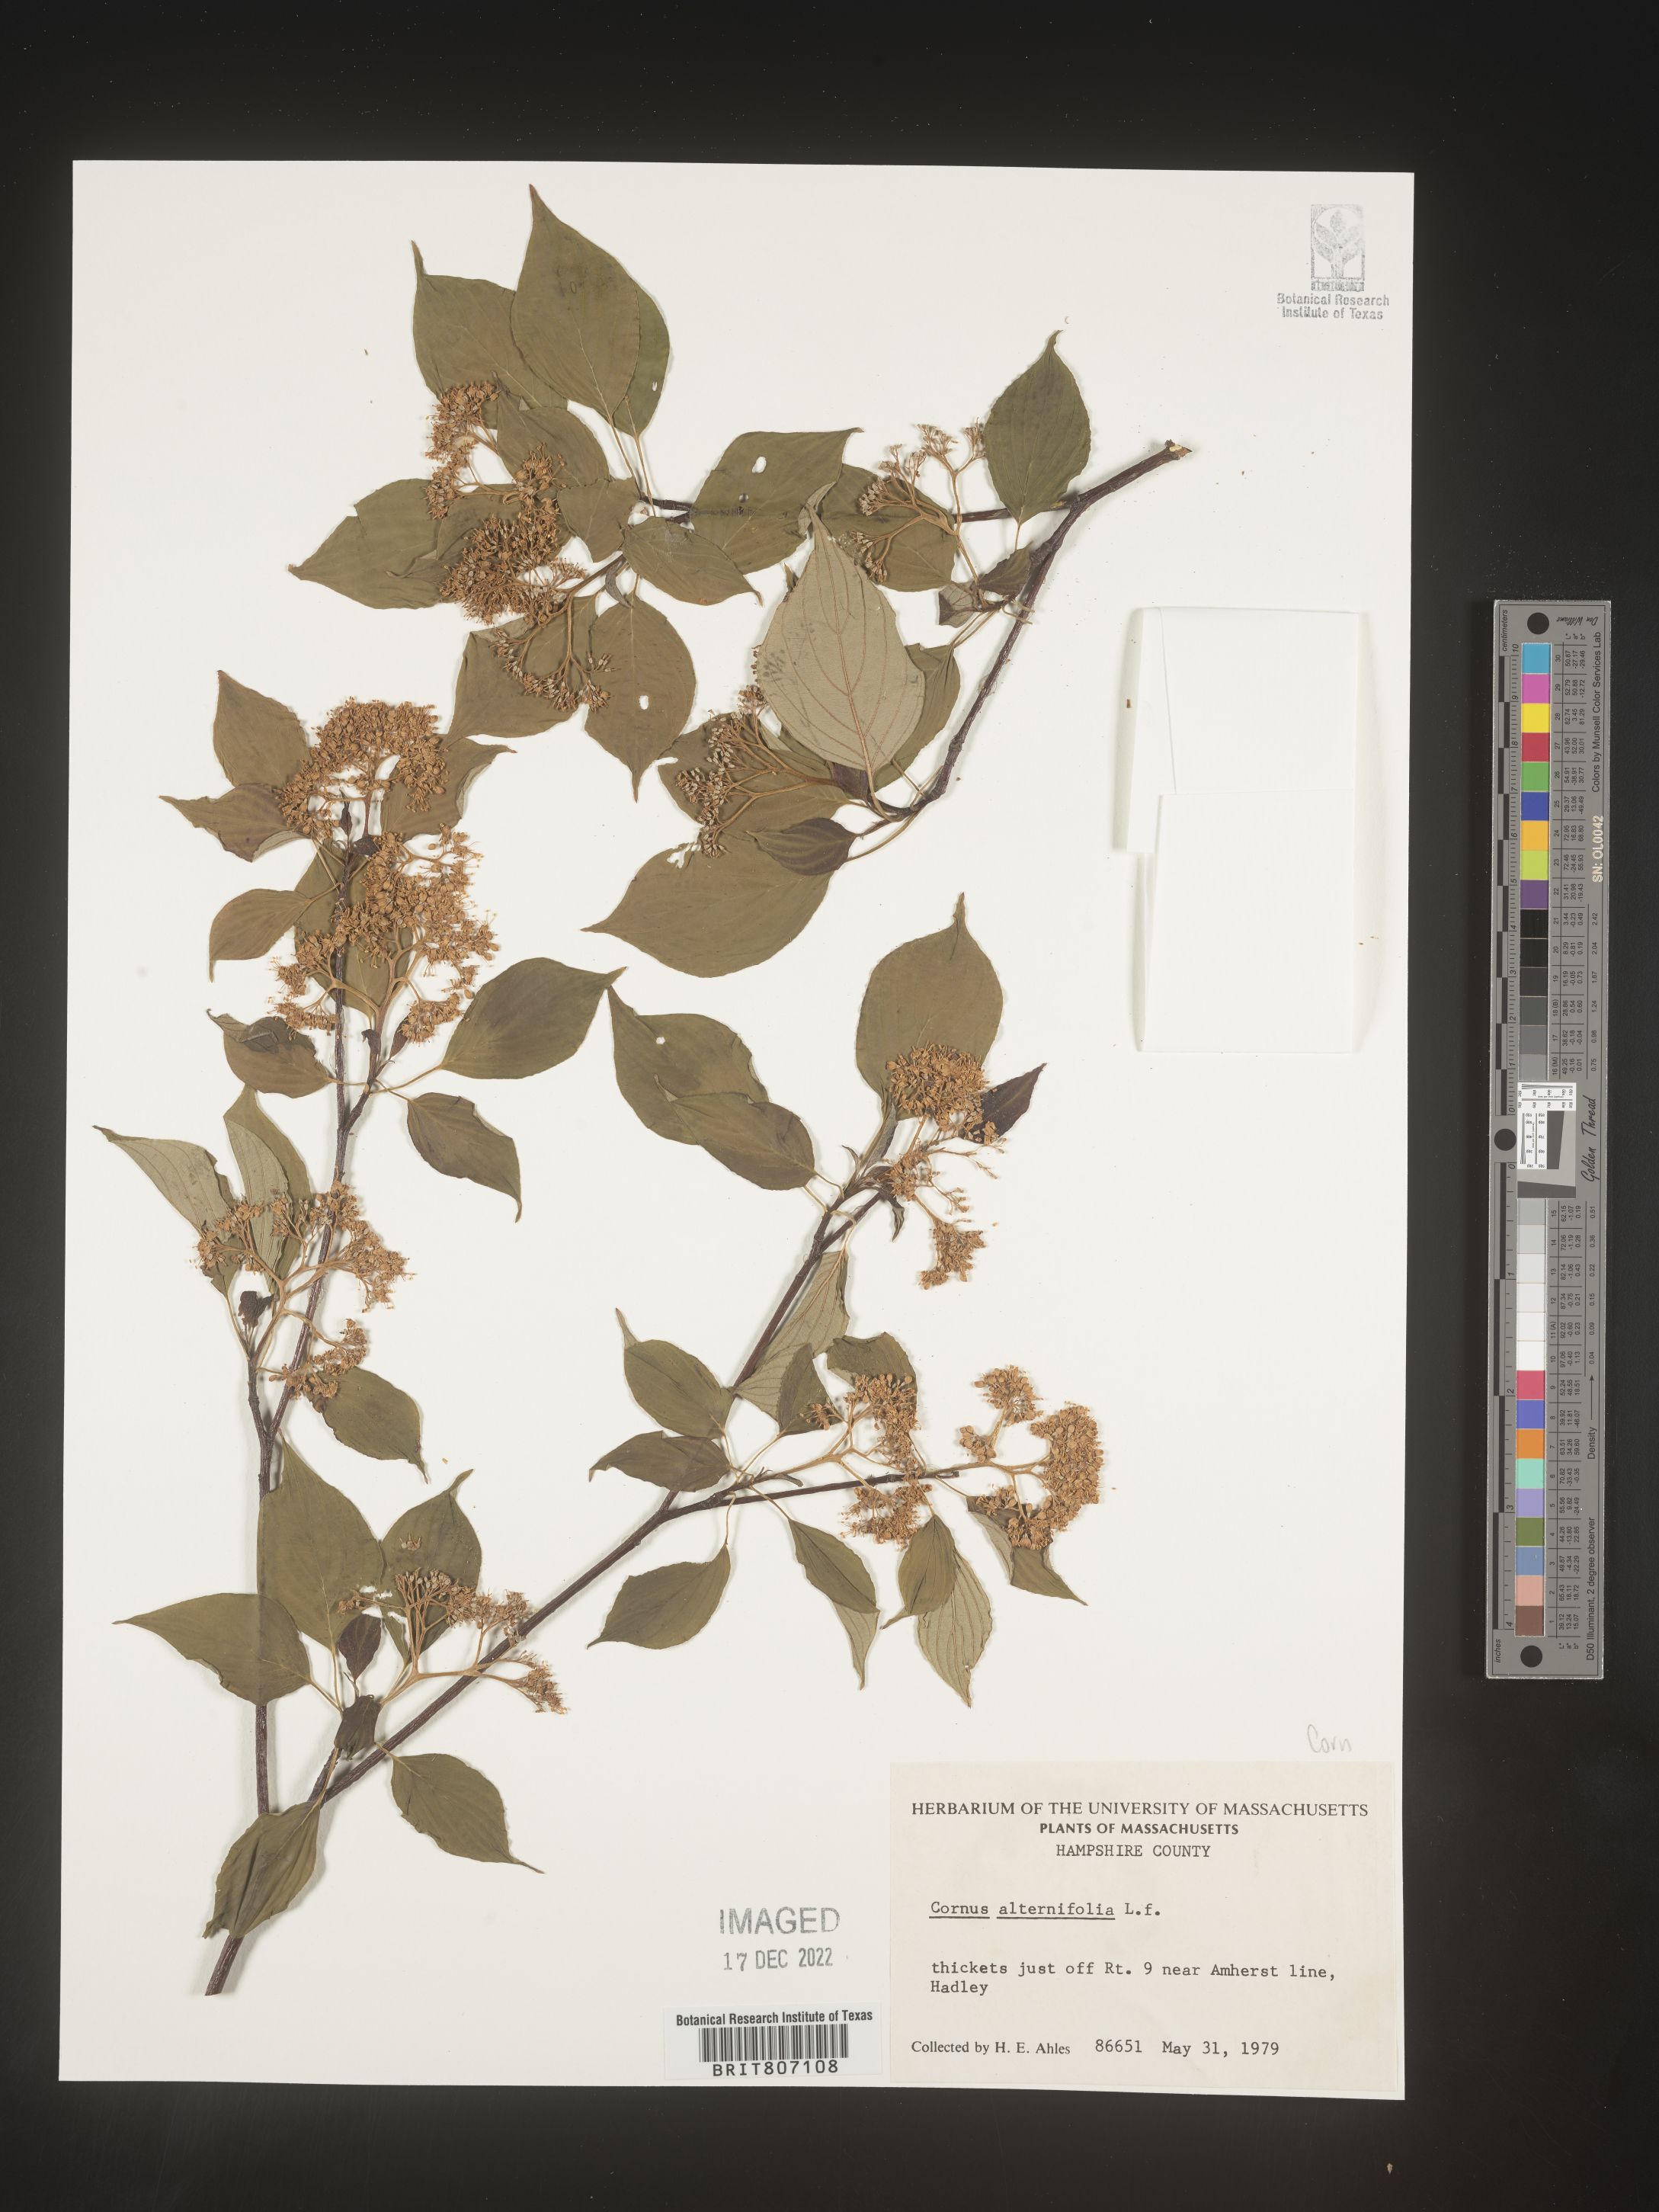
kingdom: Plantae
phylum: Tracheophyta
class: Magnoliopsida
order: Cornales
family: Cornaceae
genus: Cornus
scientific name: Cornus alternifolia
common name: Pagoda dogwood
